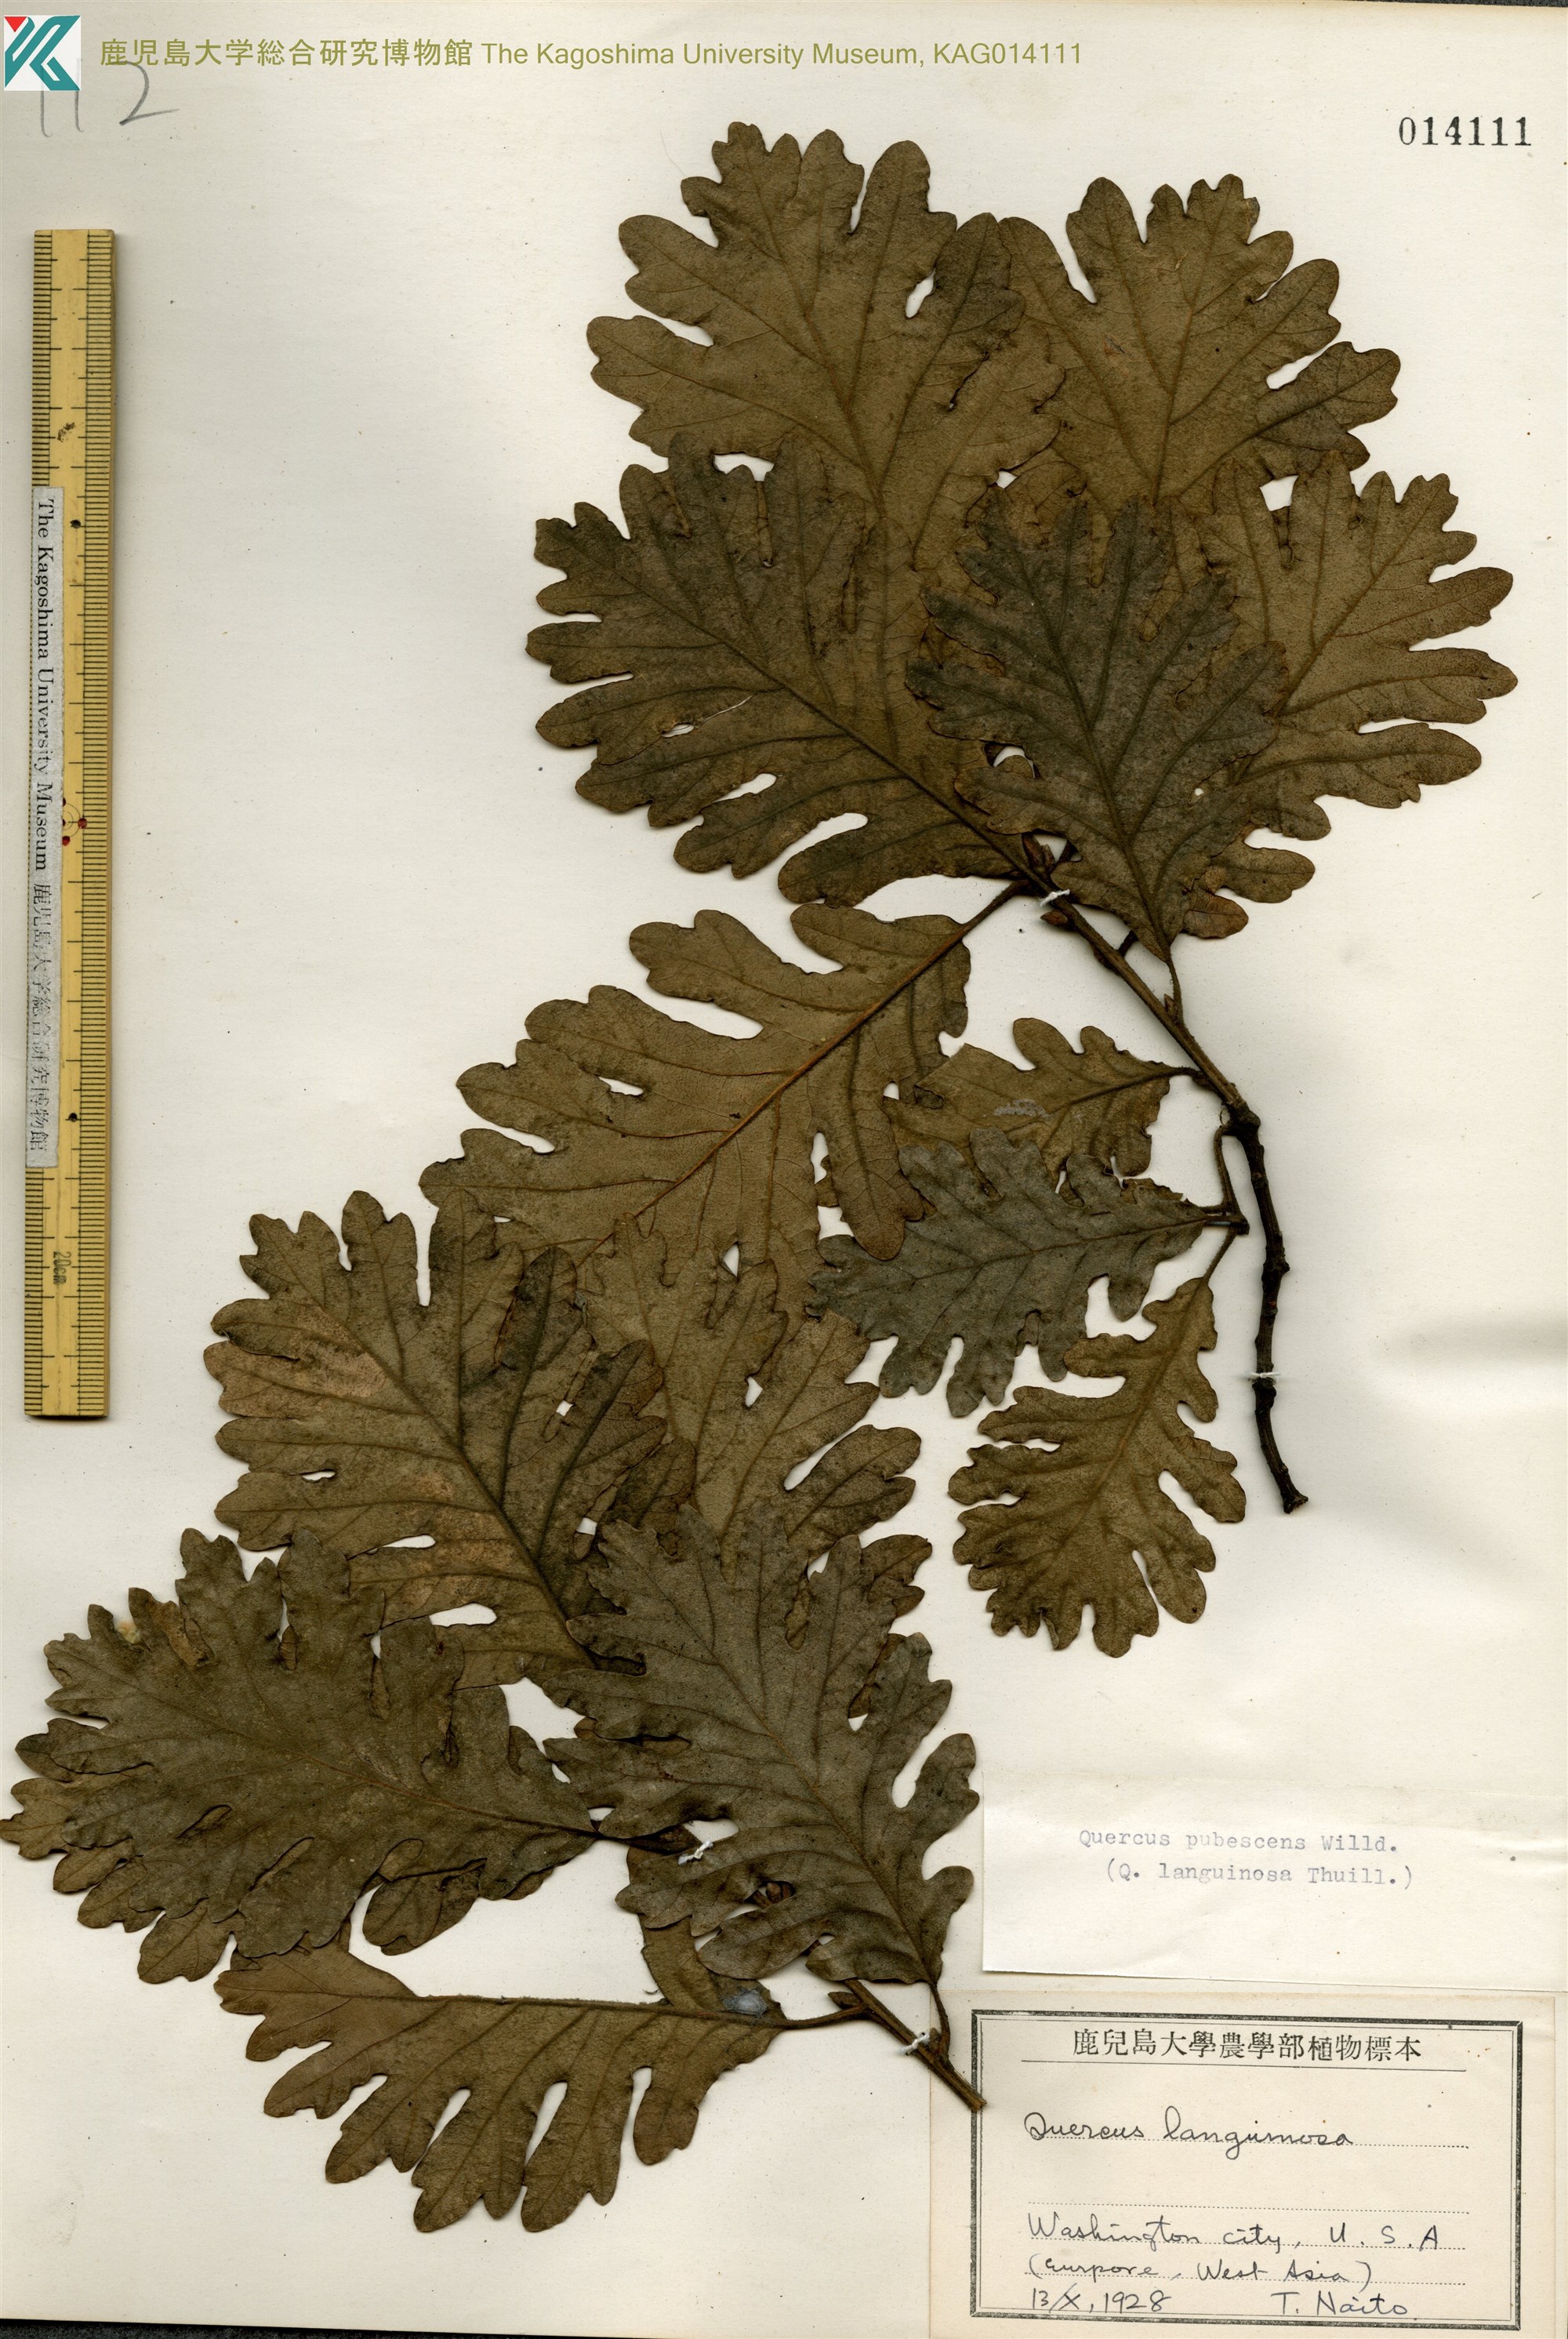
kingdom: Plantae
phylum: Tracheophyta
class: Magnoliopsida
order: Fagales
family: Fagaceae
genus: Quercus
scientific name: Quercus pubescens
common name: Downy oak
